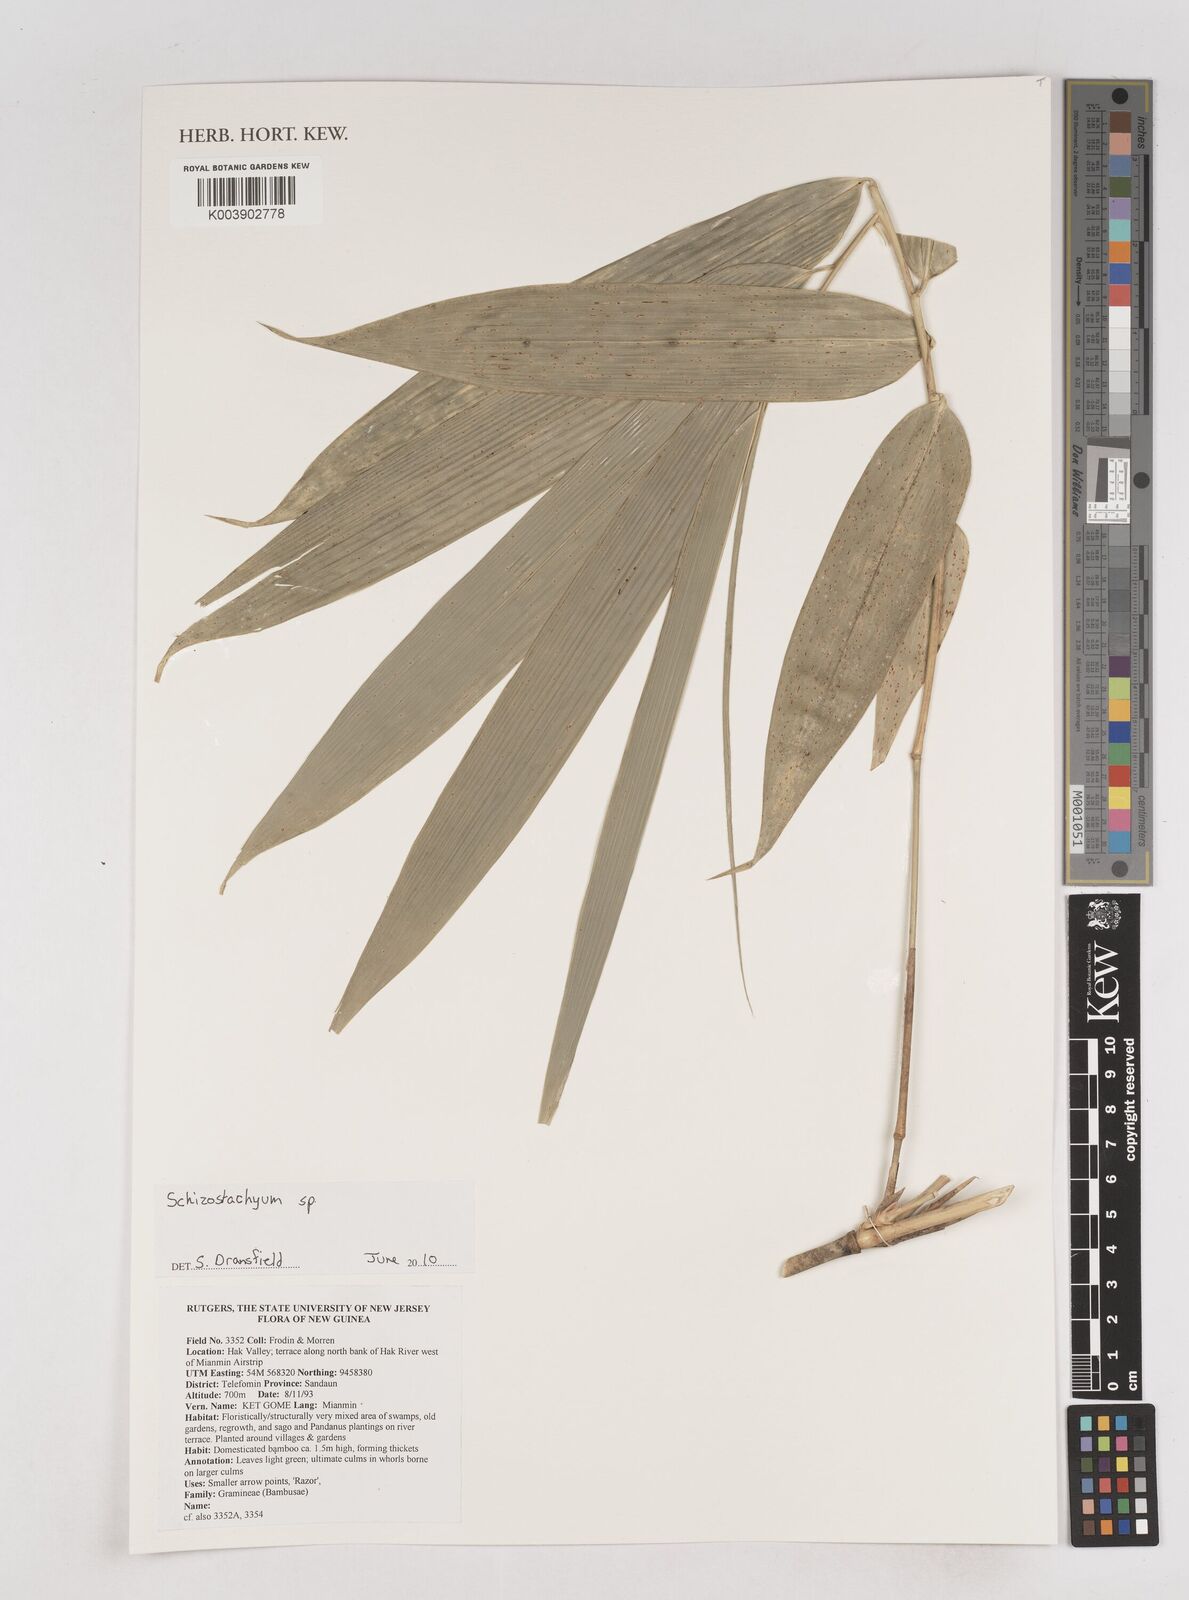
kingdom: Plantae
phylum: Tracheophyta
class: Liliopsida
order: Poales
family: Poaceae
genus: Schizostachyum
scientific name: Schizostachyum
